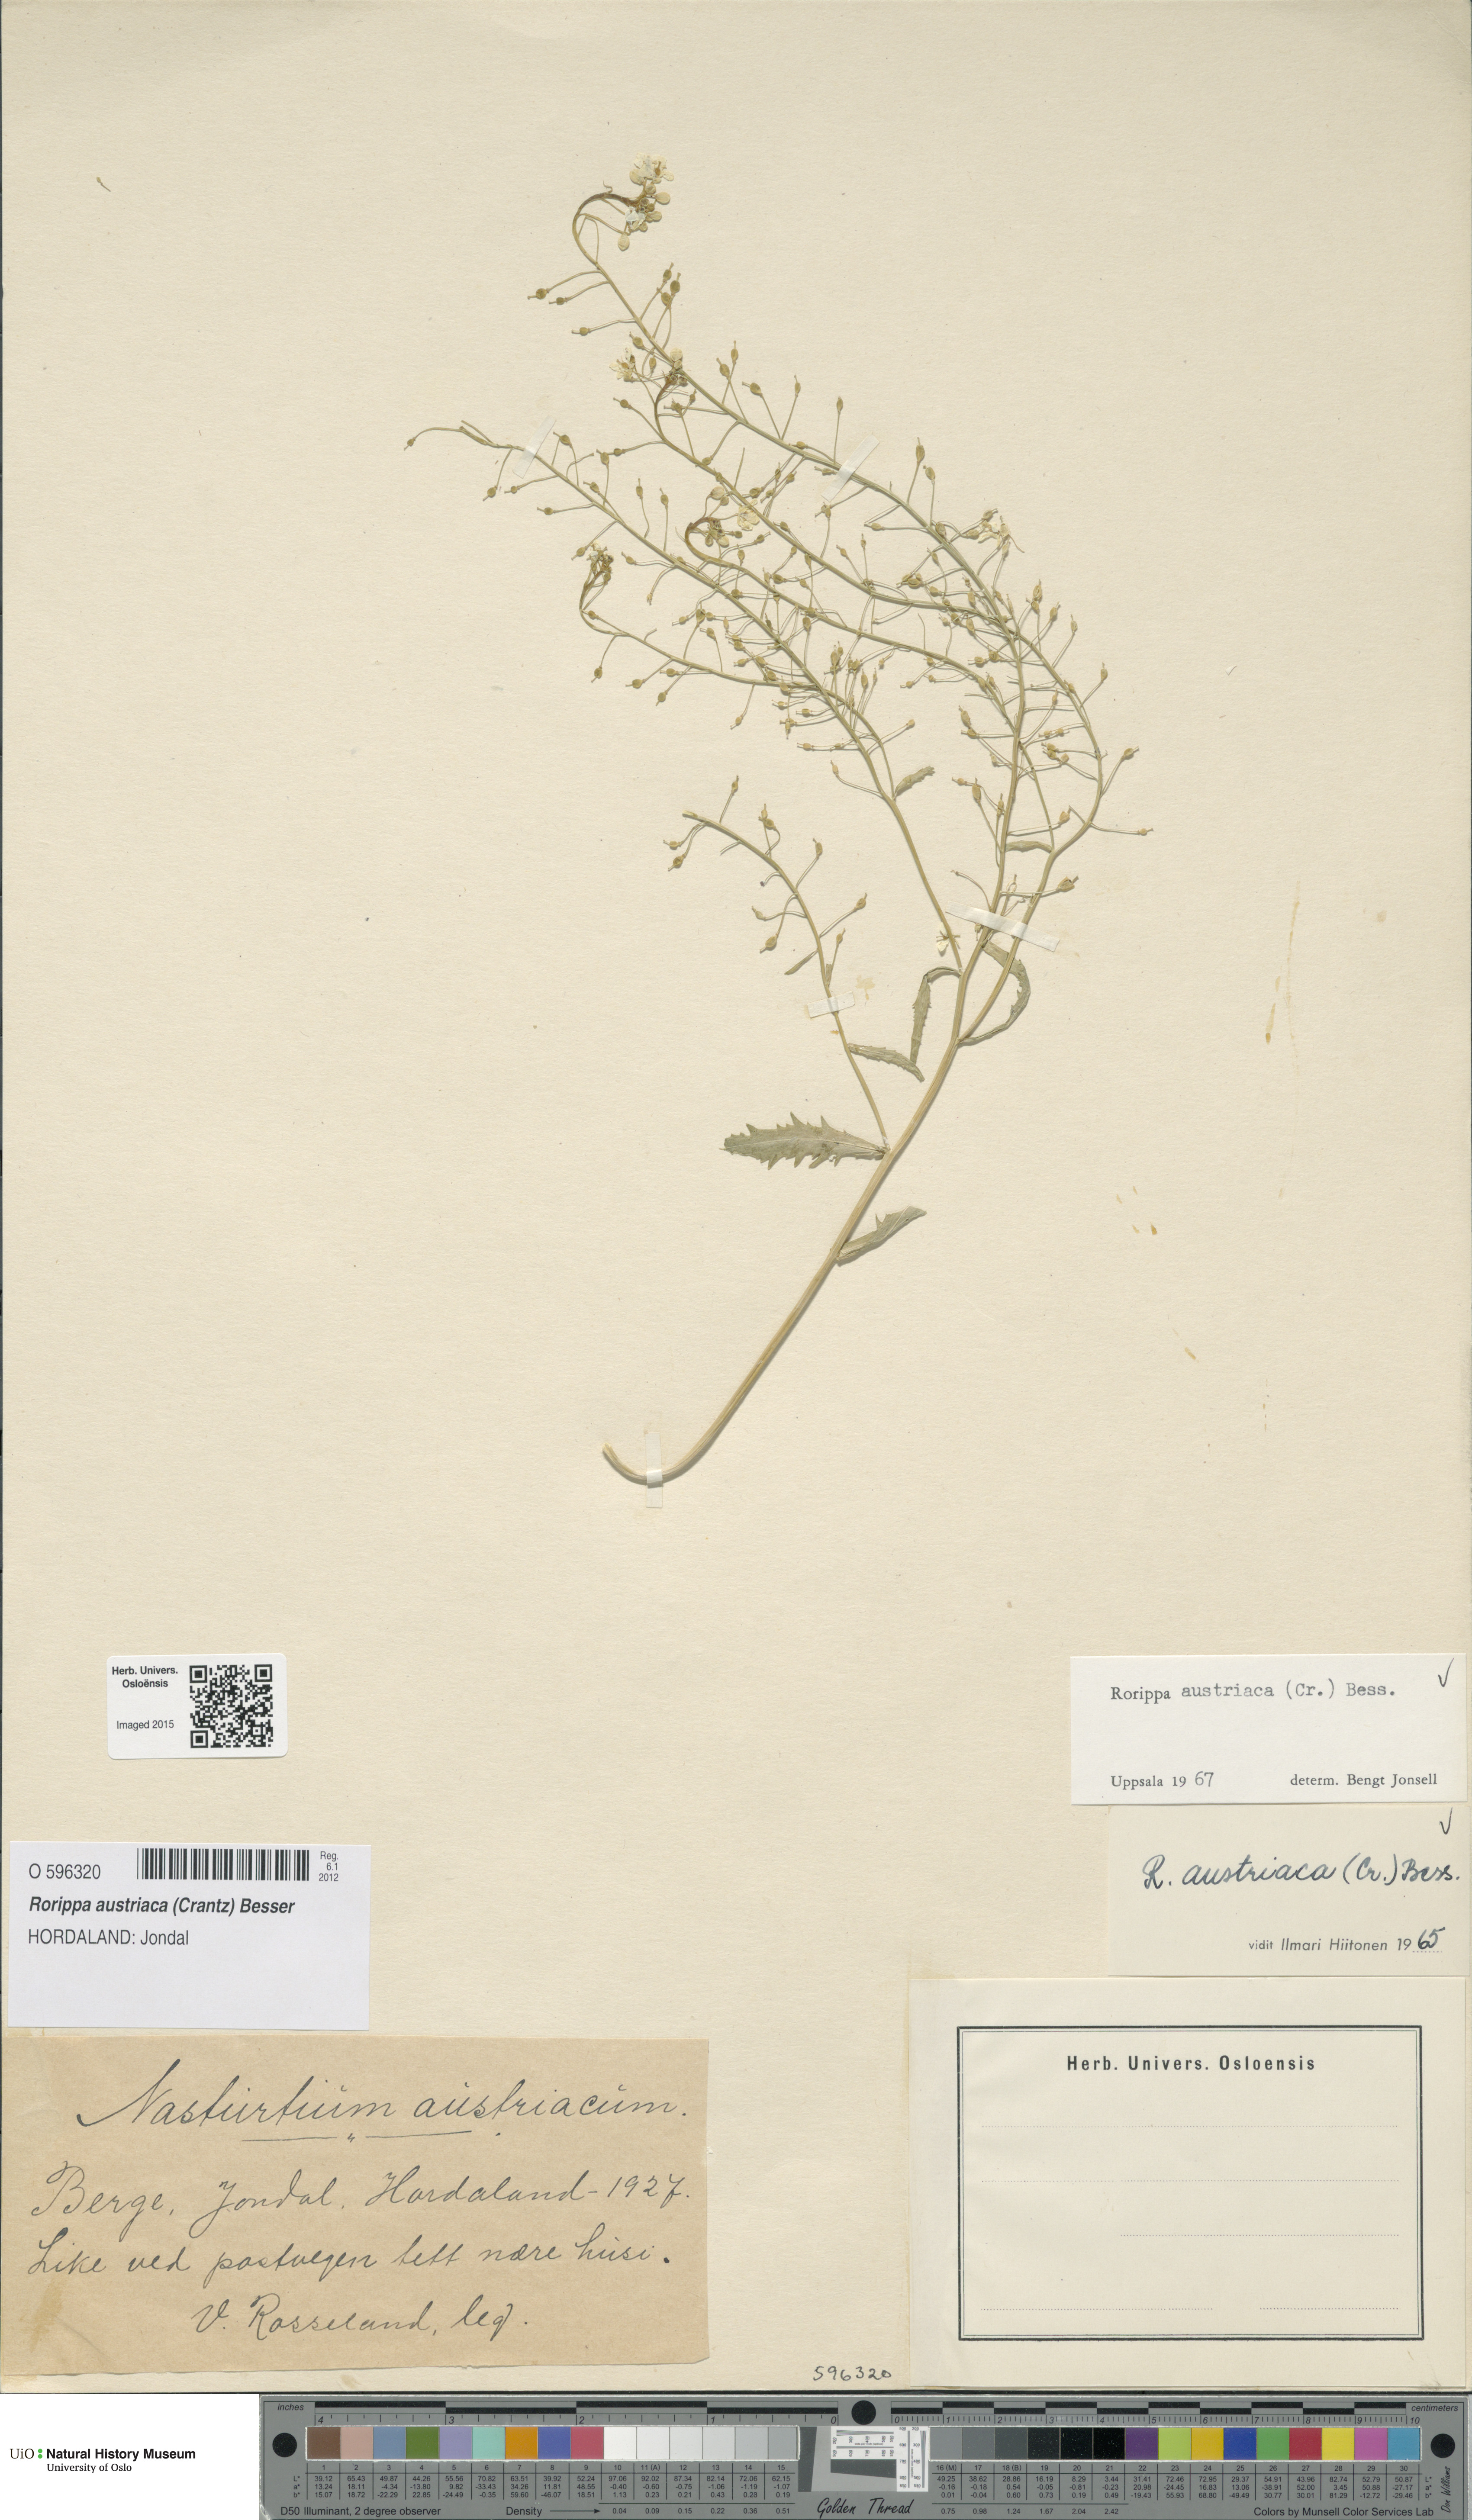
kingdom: Plantae
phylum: Tracheophyta
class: Magnoliopsida
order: Brassicales
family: Brassicaceae
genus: Rorippa
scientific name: Rorippa austriaca
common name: Austrian yellow-cress
